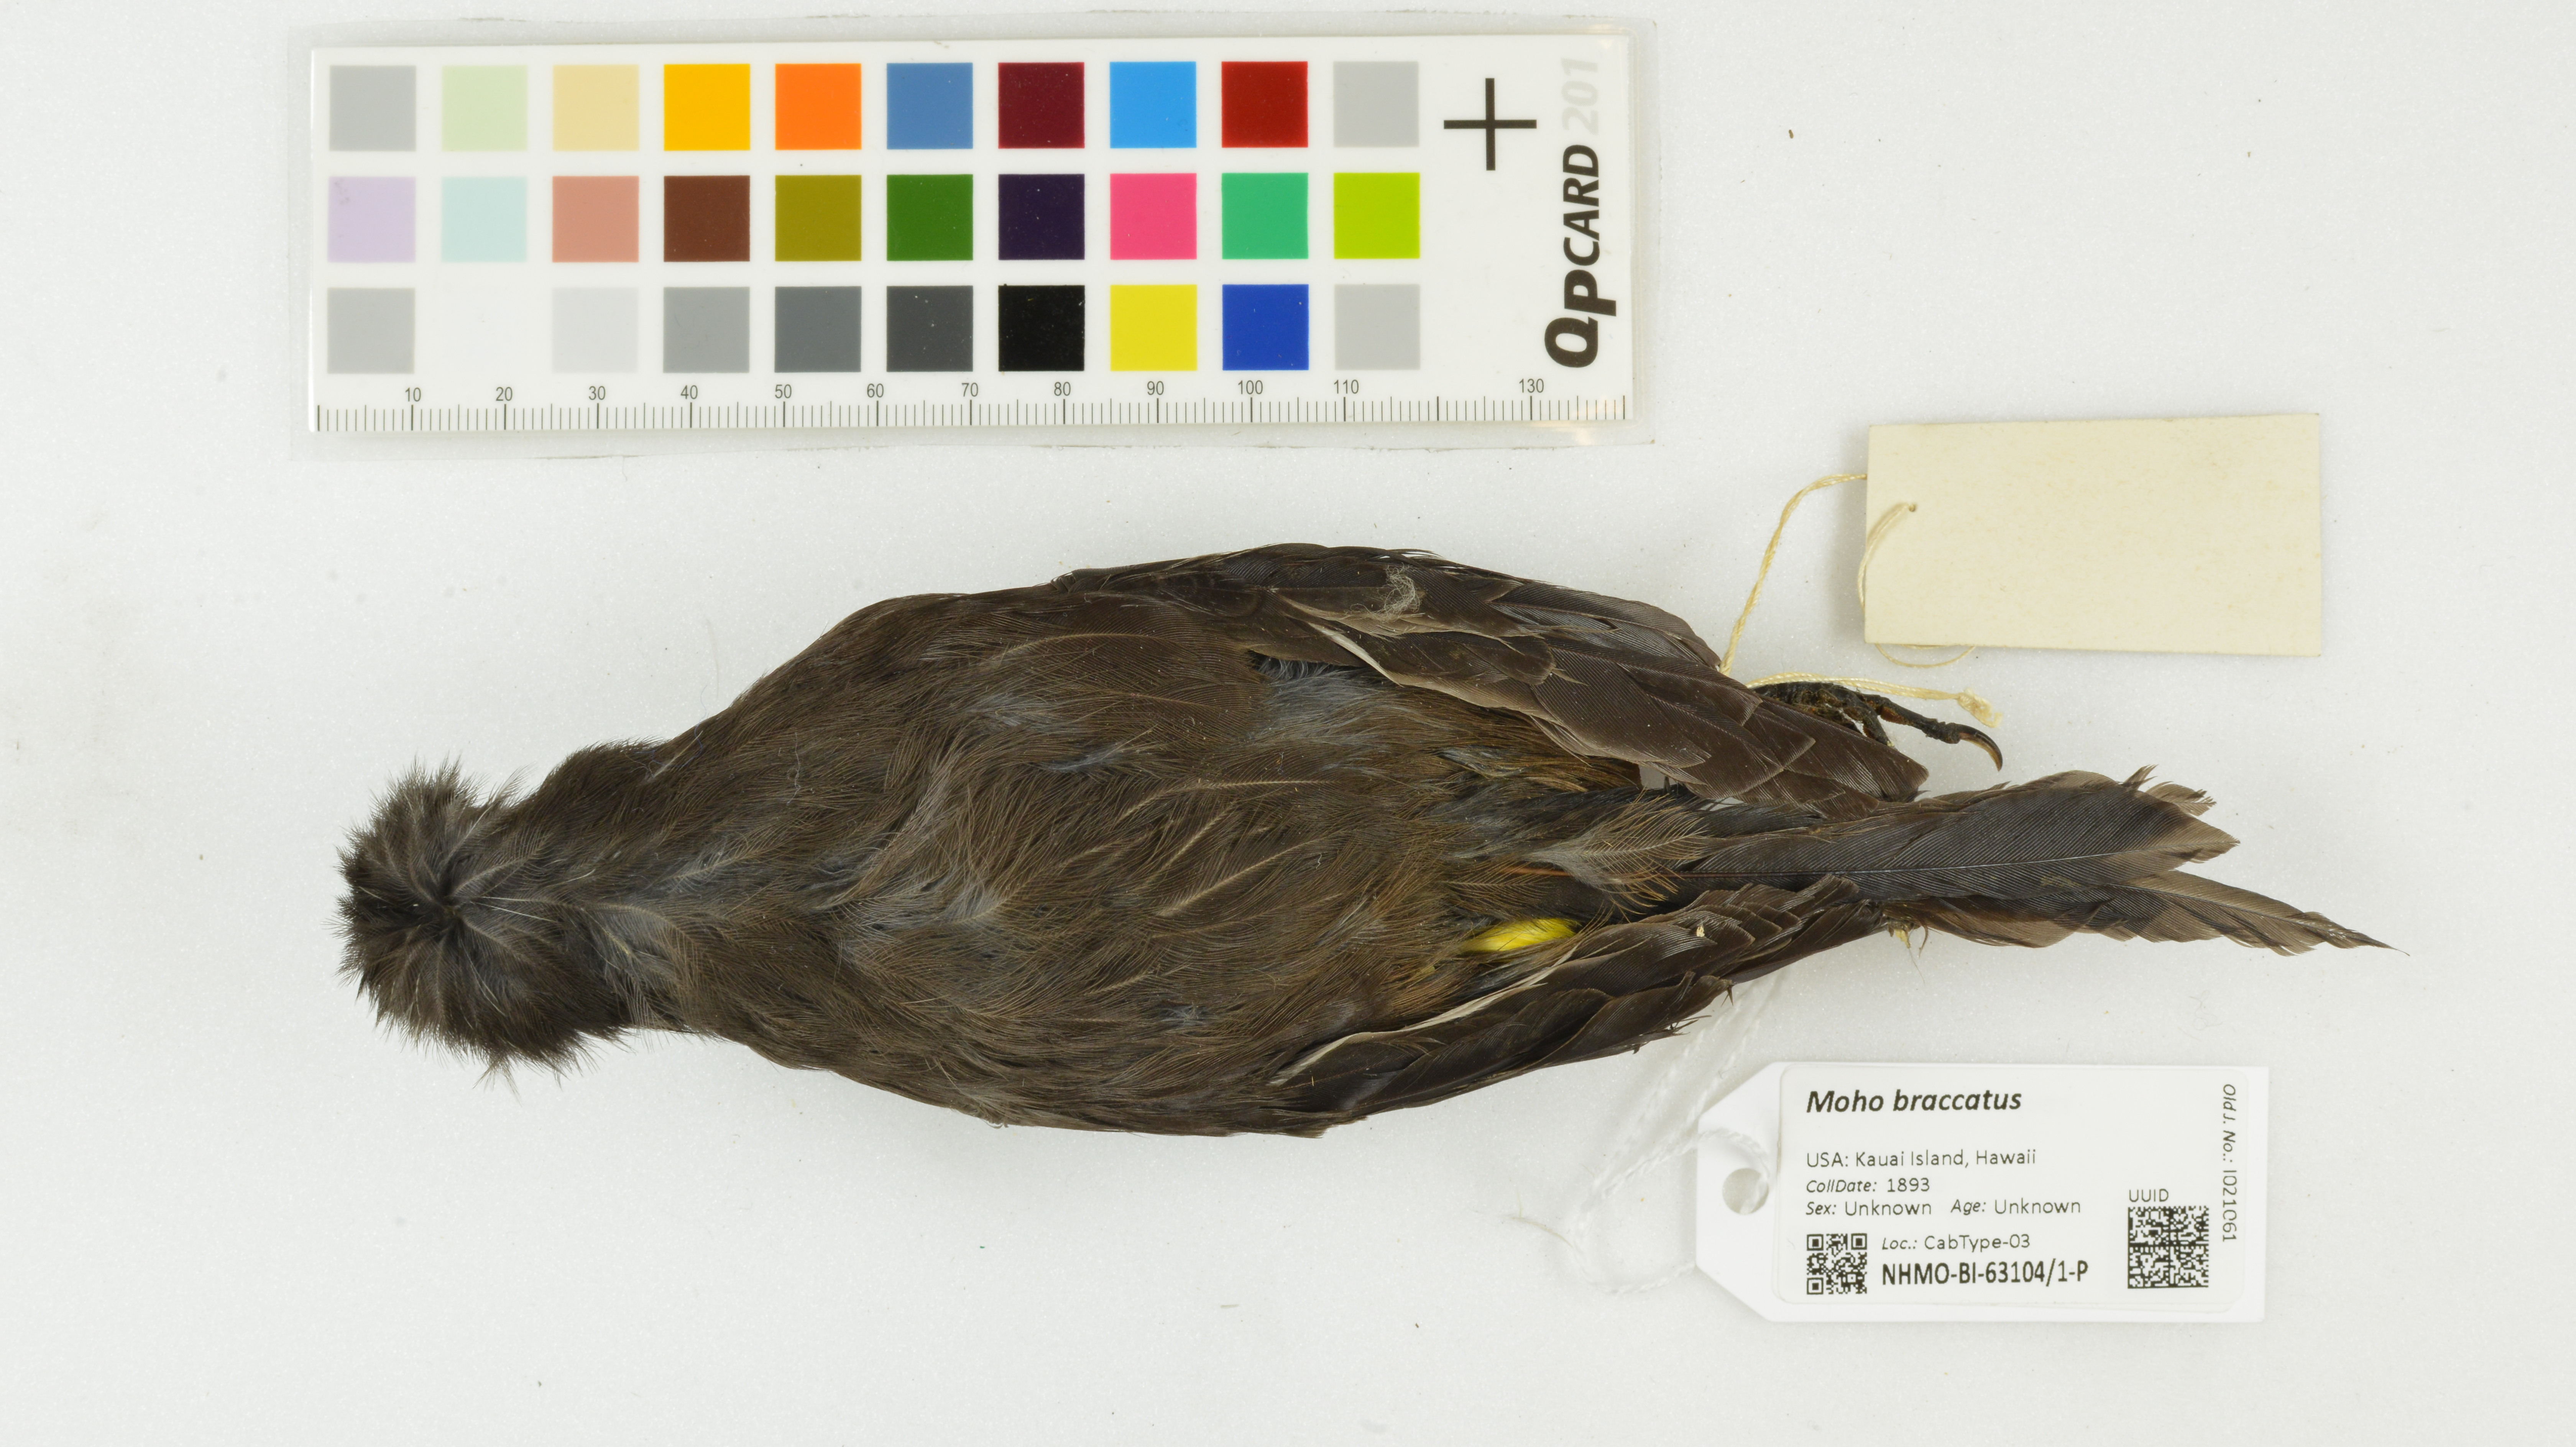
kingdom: Animalia
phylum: Chordata
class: Aves
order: Passeriformes
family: Mohoidae
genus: Moho
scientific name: Moho braccatus
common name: Kauai oo
